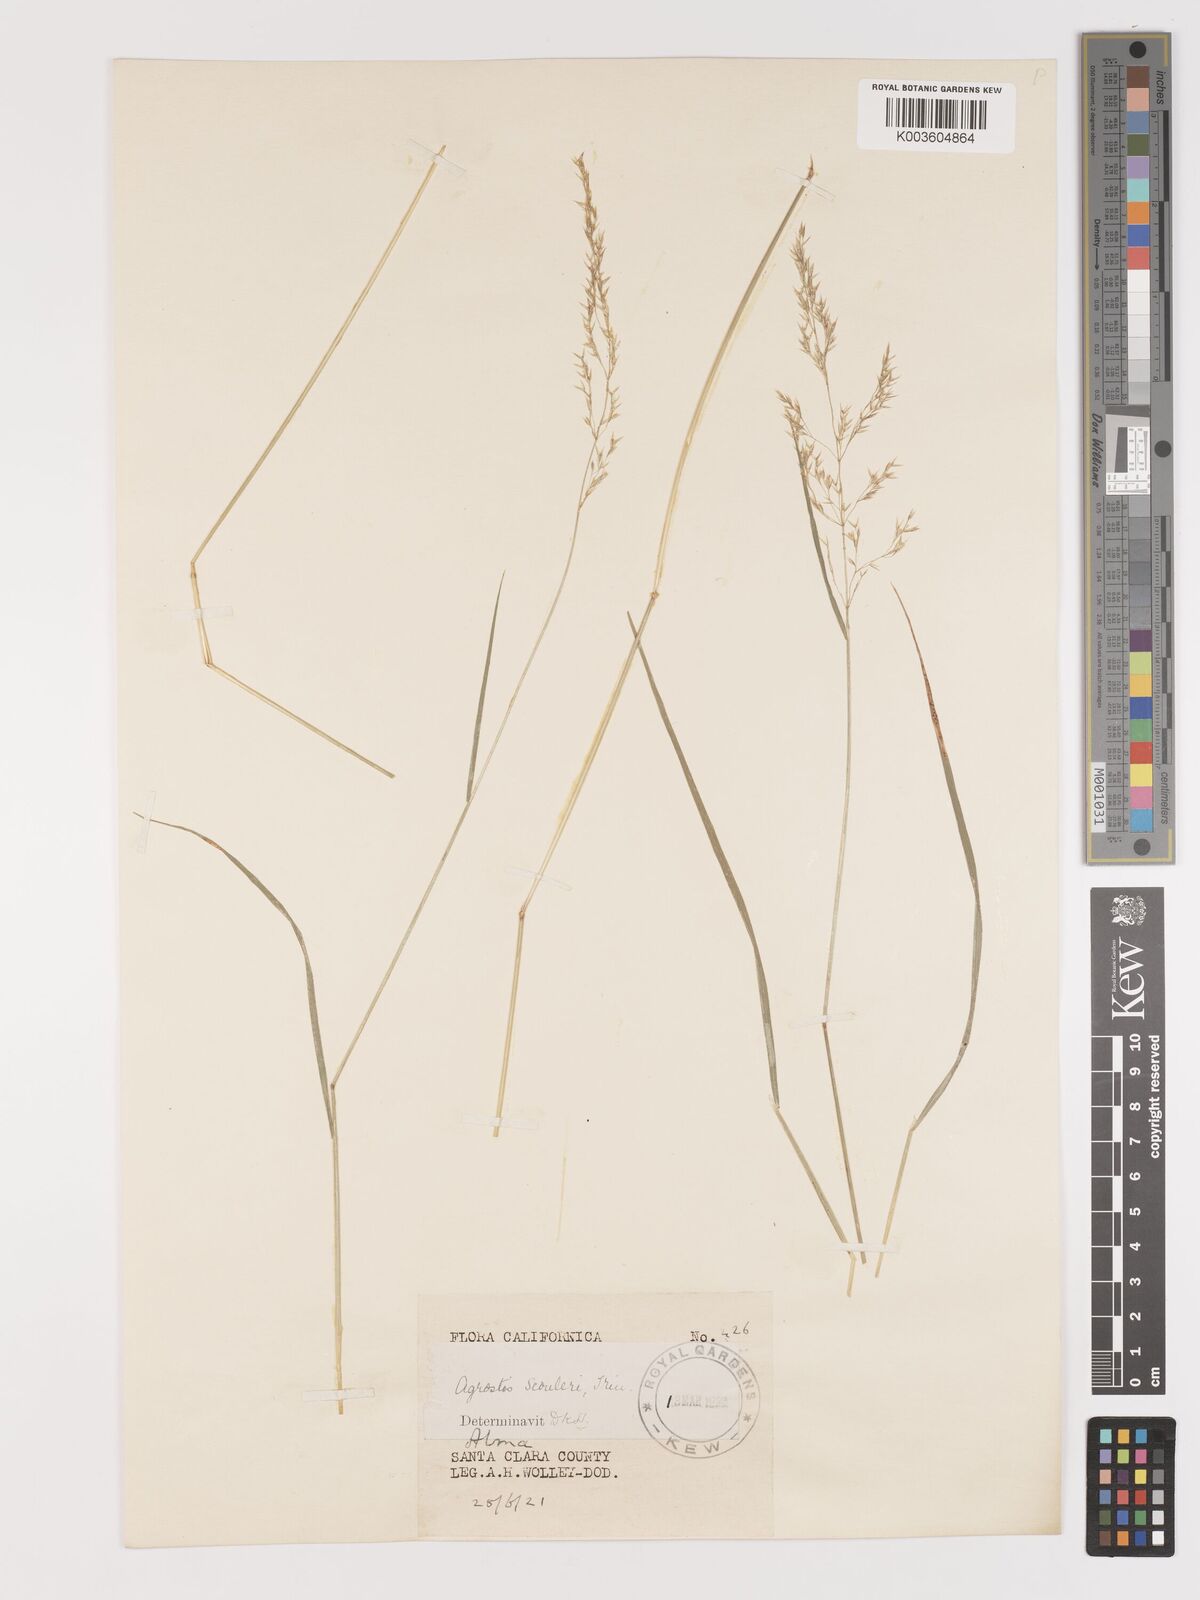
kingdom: Plantae
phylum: Tracheophyta
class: Liliopsida
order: Poales
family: Poaceae
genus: Agrostis
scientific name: Agrostis
